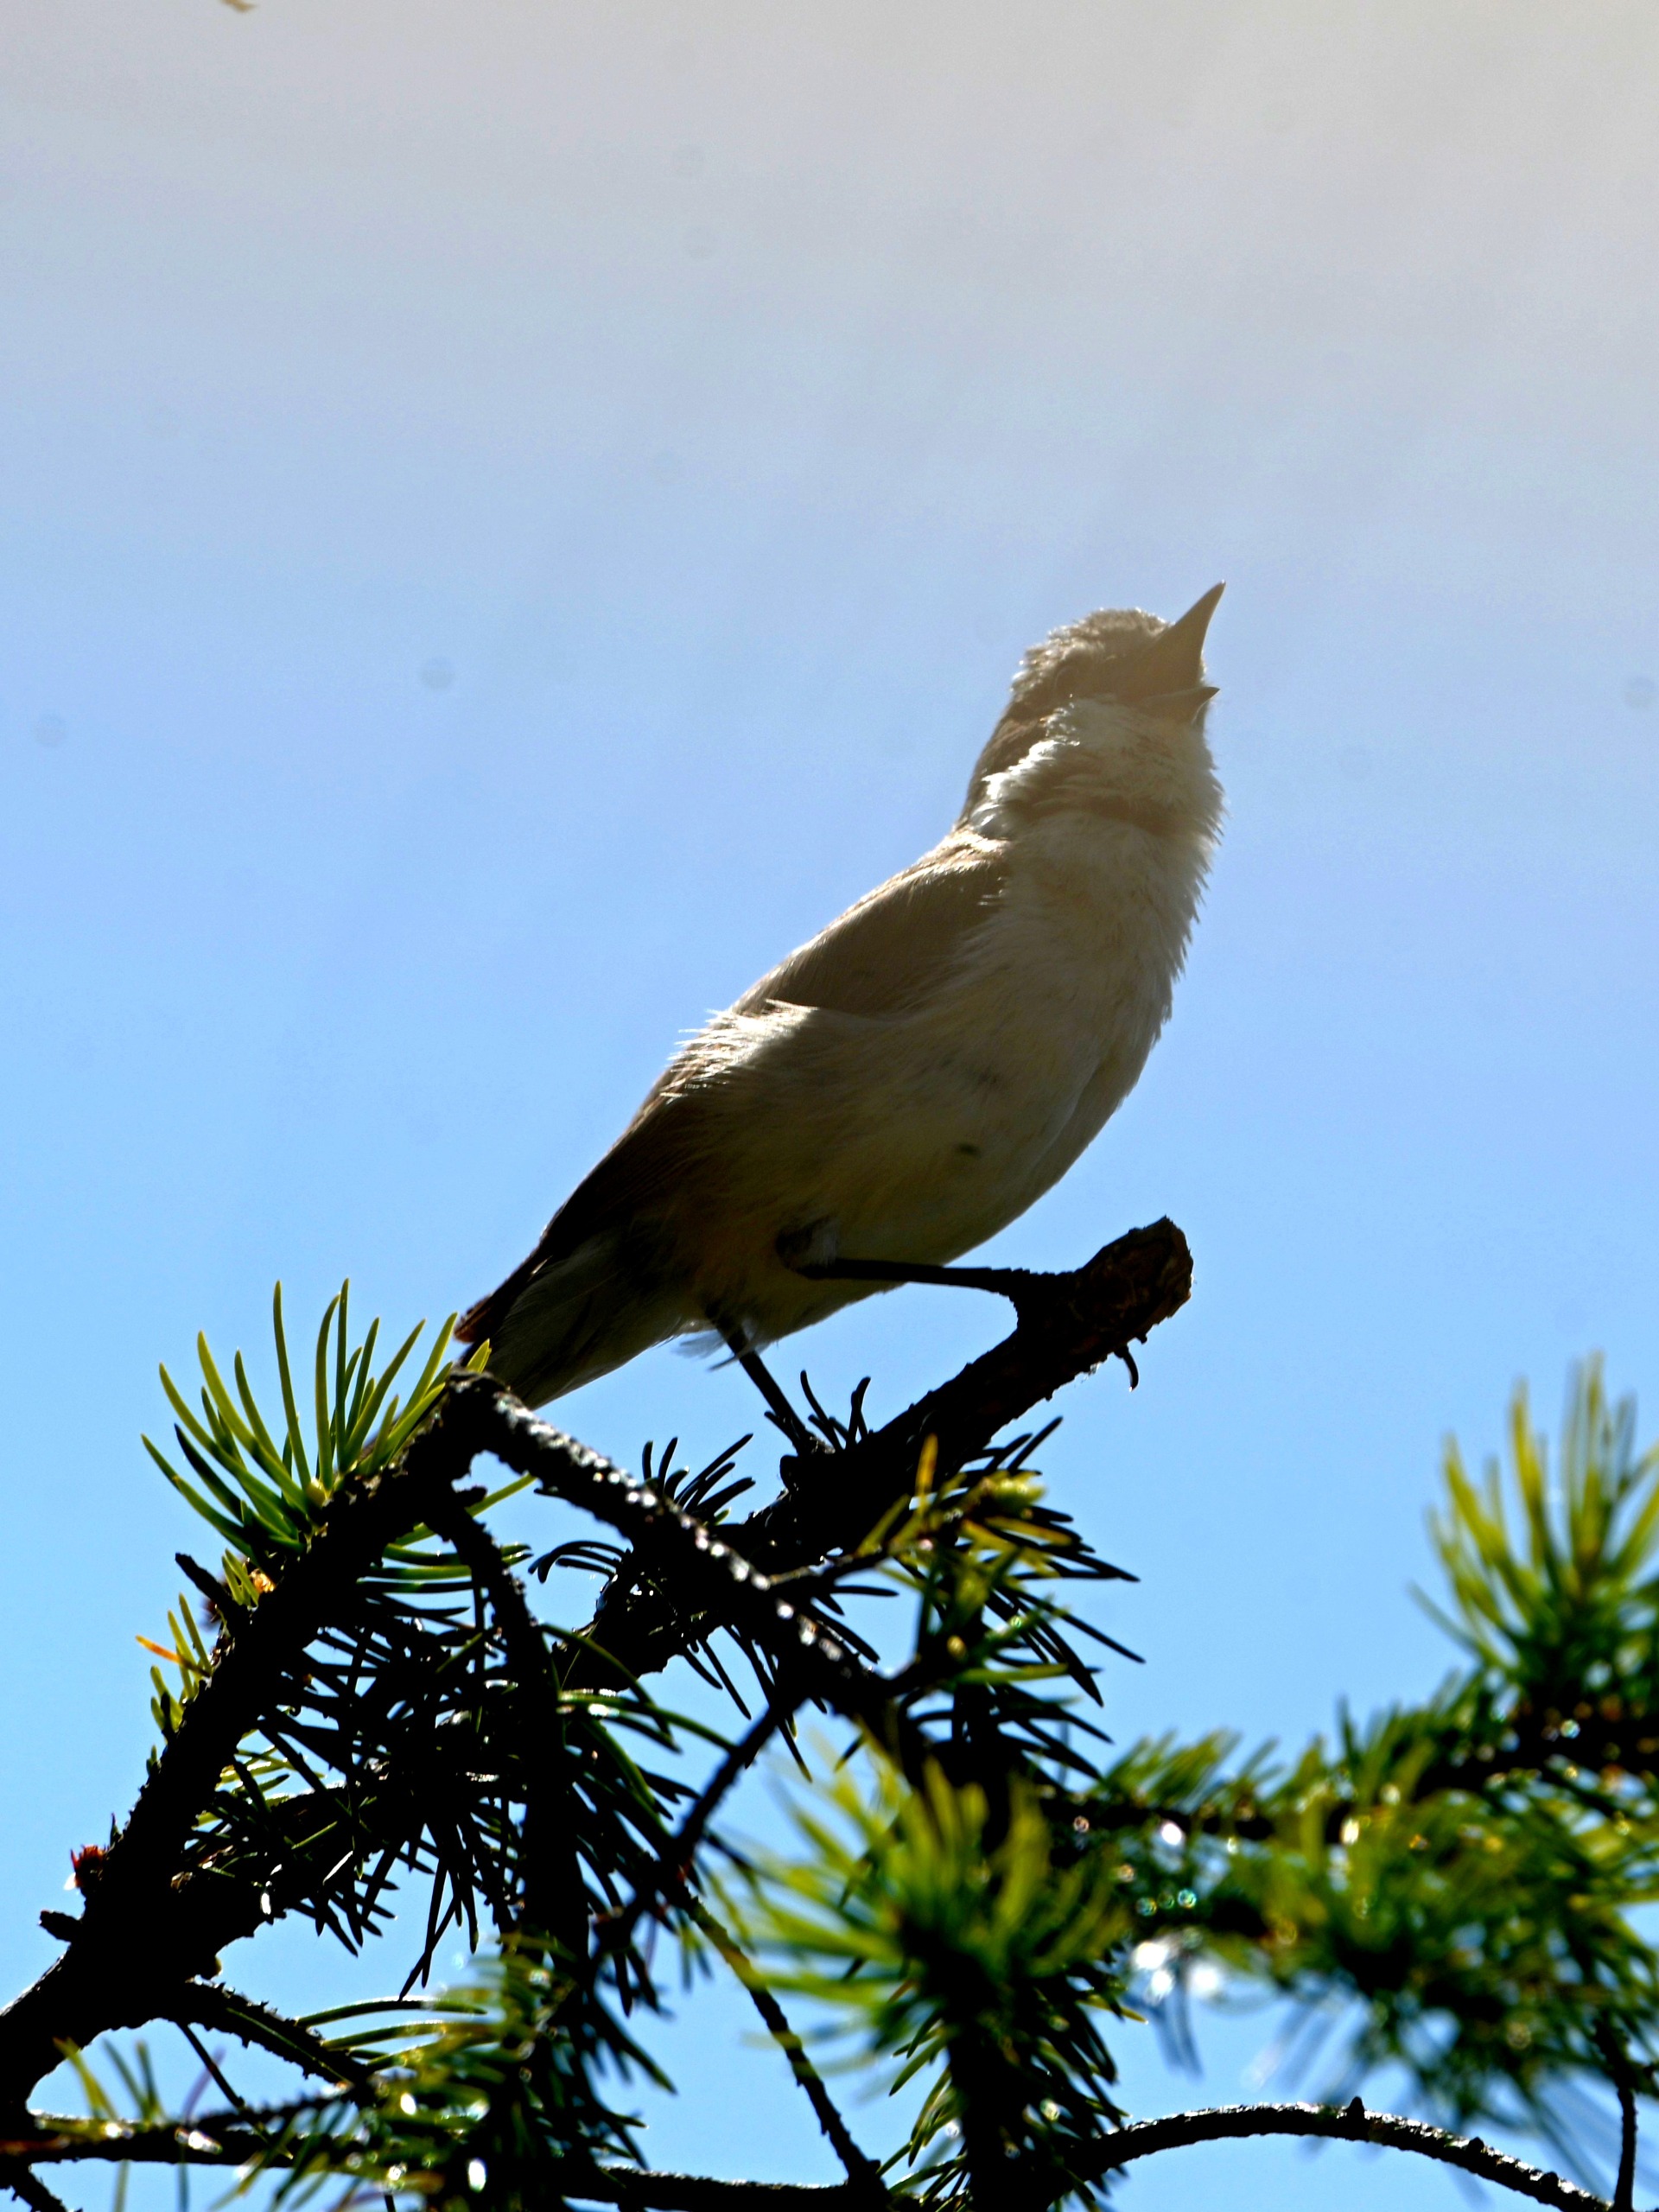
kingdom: Animalia
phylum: Chordata
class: Aves
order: Passeriformes
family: Sylviidae
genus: Sylvia
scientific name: Sylvia curruca
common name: Gærdesanger
